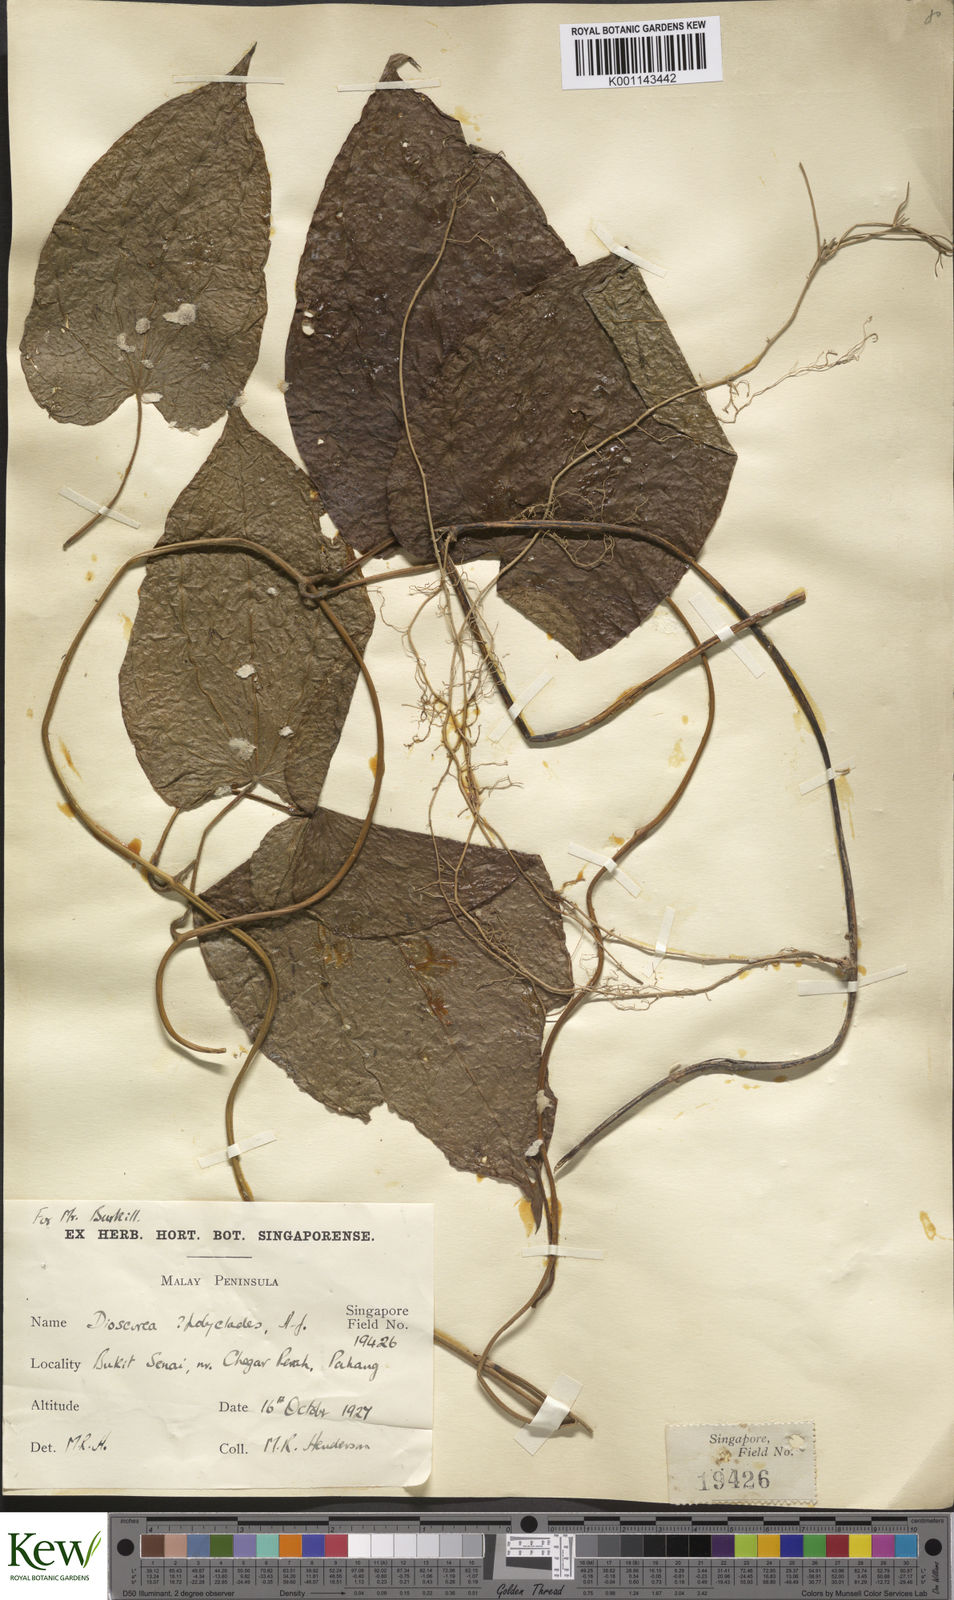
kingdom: Plantae
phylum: Tracheophyta
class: Liliopsida
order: Dioscoreales
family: Dioscoreaceae
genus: Dioscorea
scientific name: Dioscorea polyclados
